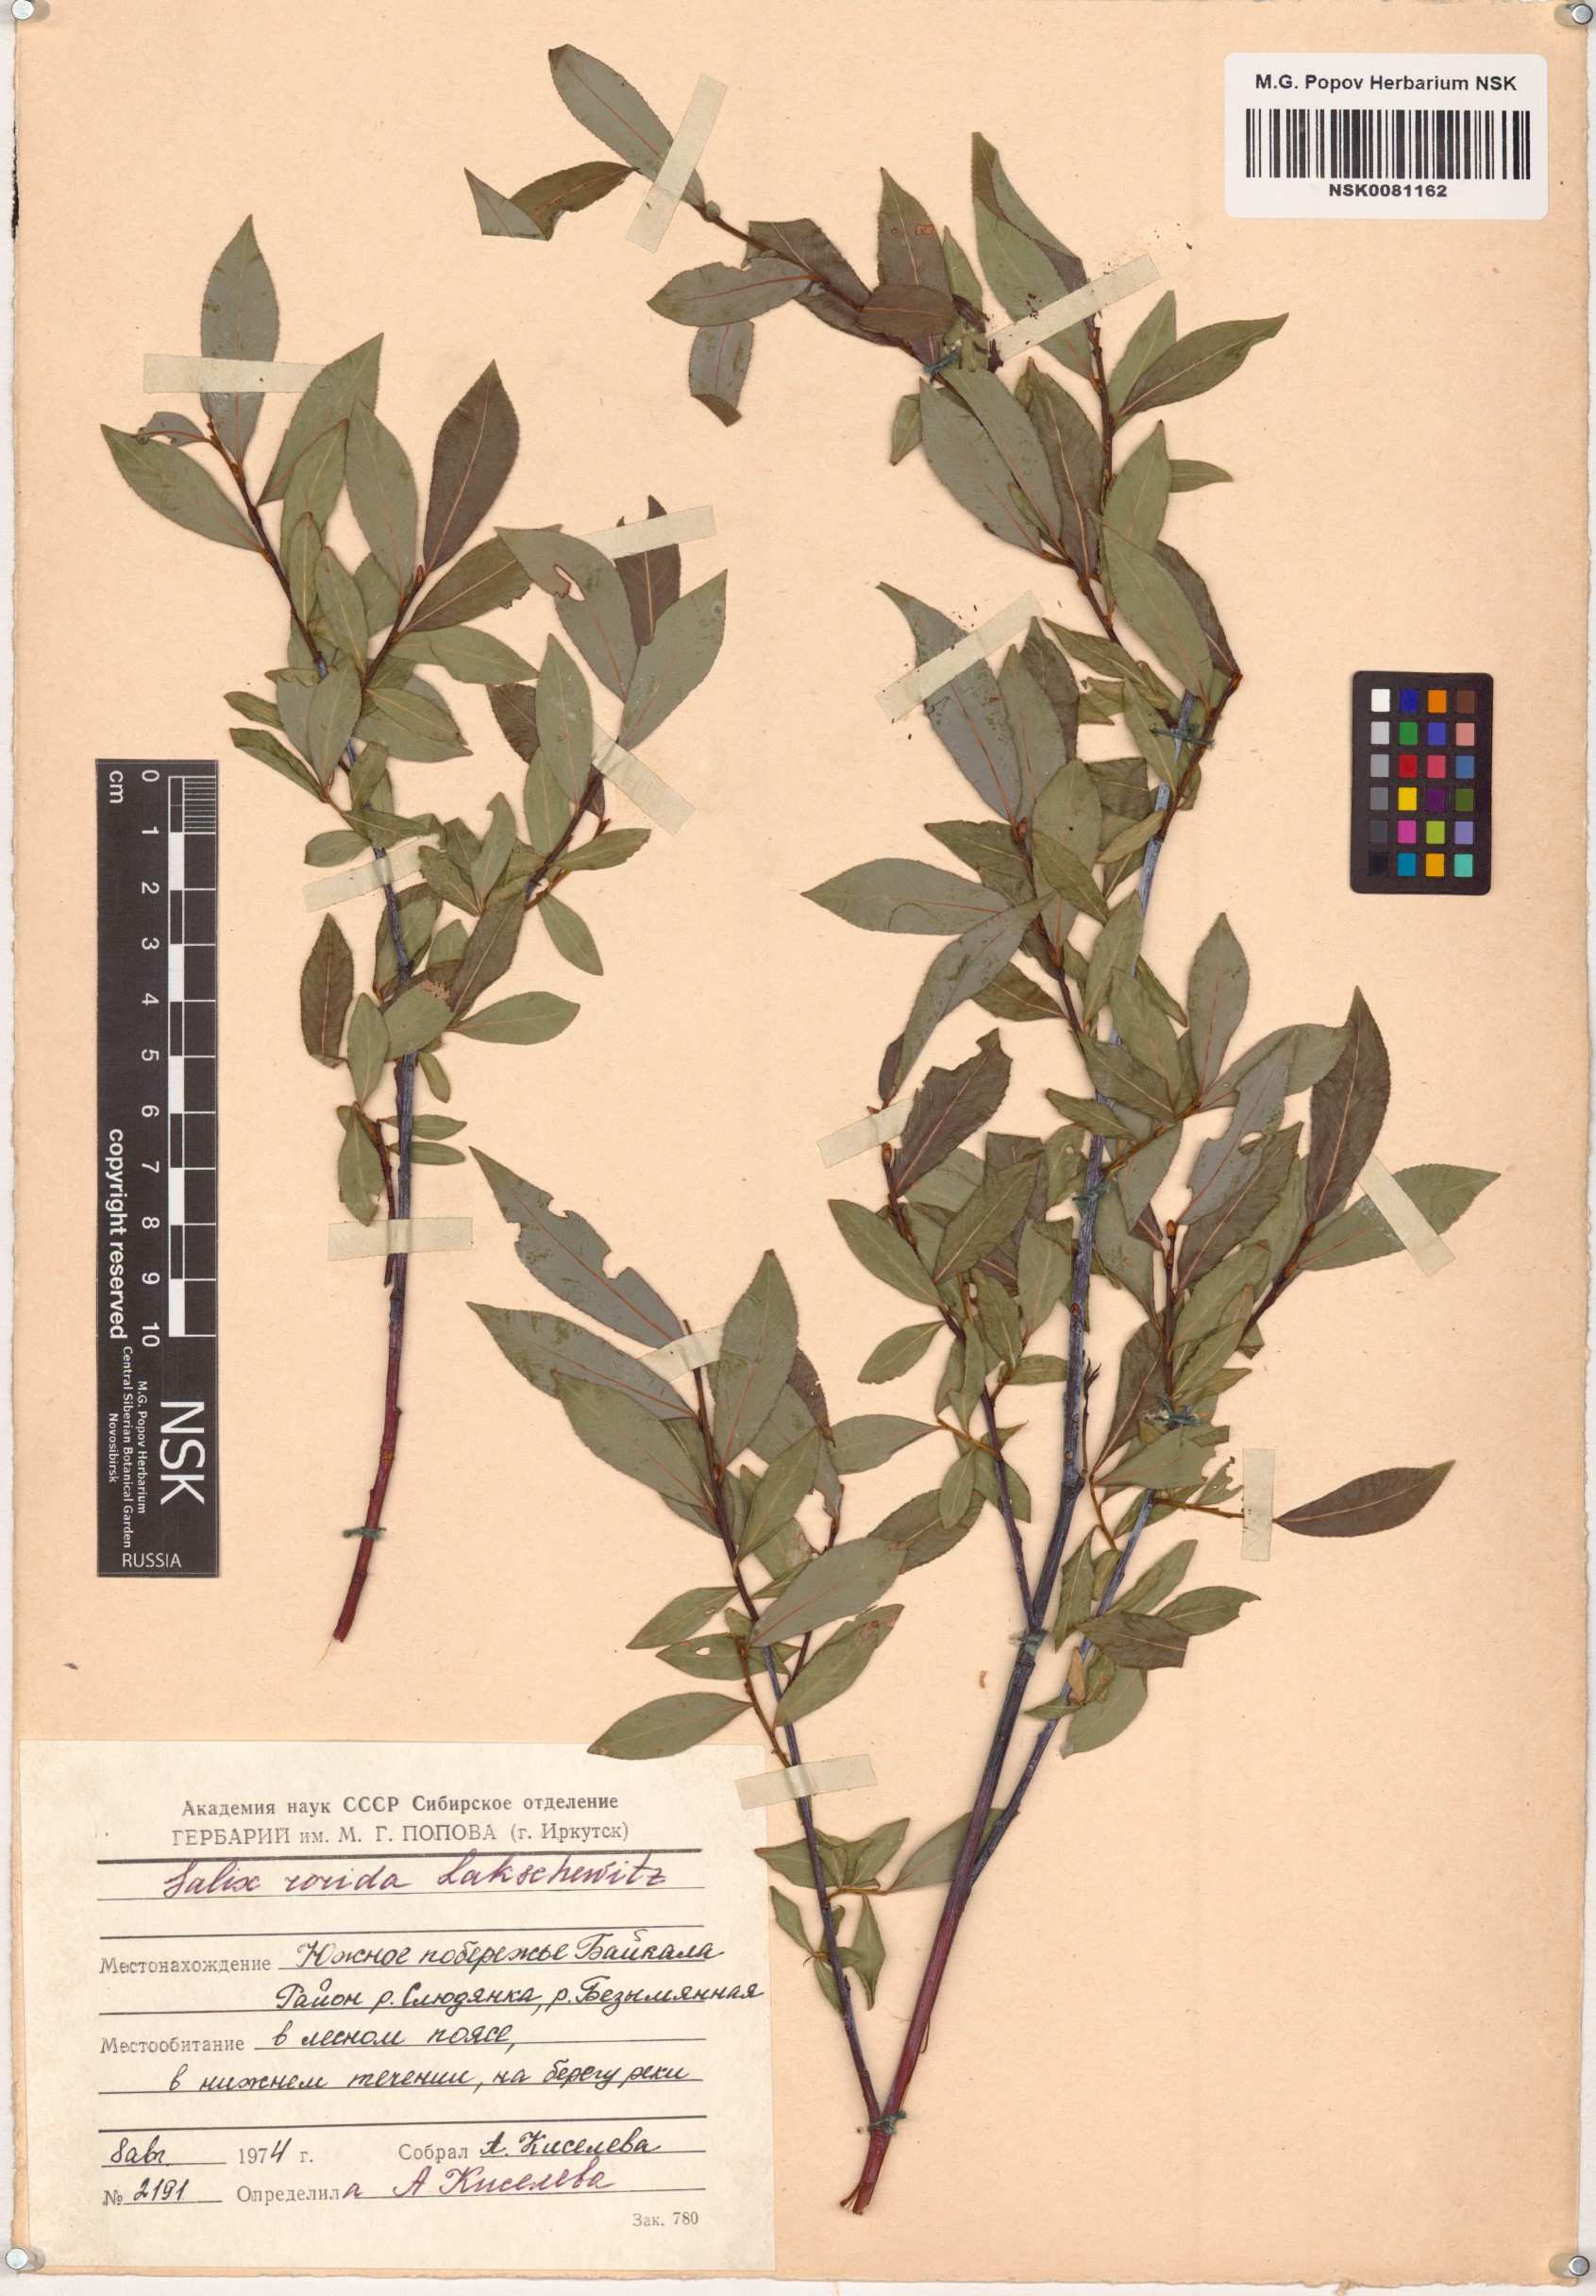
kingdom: Plantae
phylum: Tracheophyta
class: Magnoliopsida
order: Malpighiales
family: Salicaceae
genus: Salix
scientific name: Salix rorida
